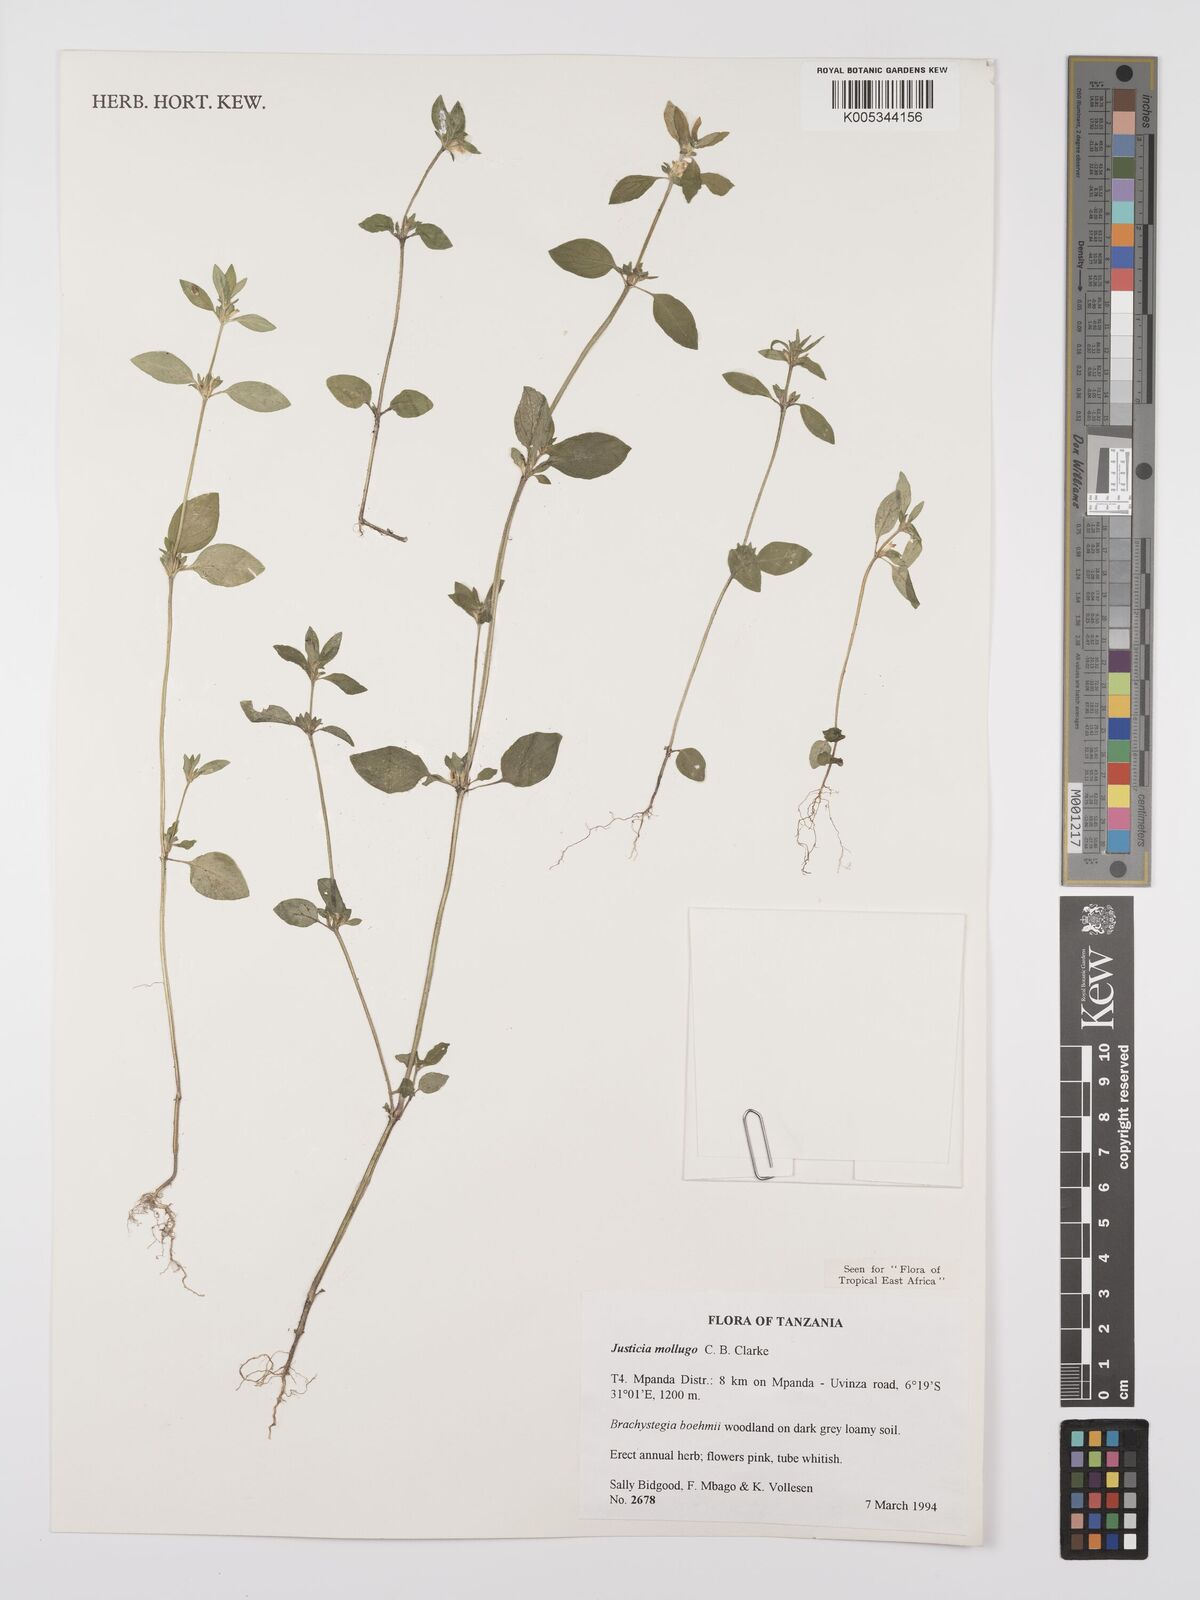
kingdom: Plantae
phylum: Tracheophyta
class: Magnoliopsida
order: Lamiales
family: Acanthaceae
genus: Justicia
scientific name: Justicia mollugo
